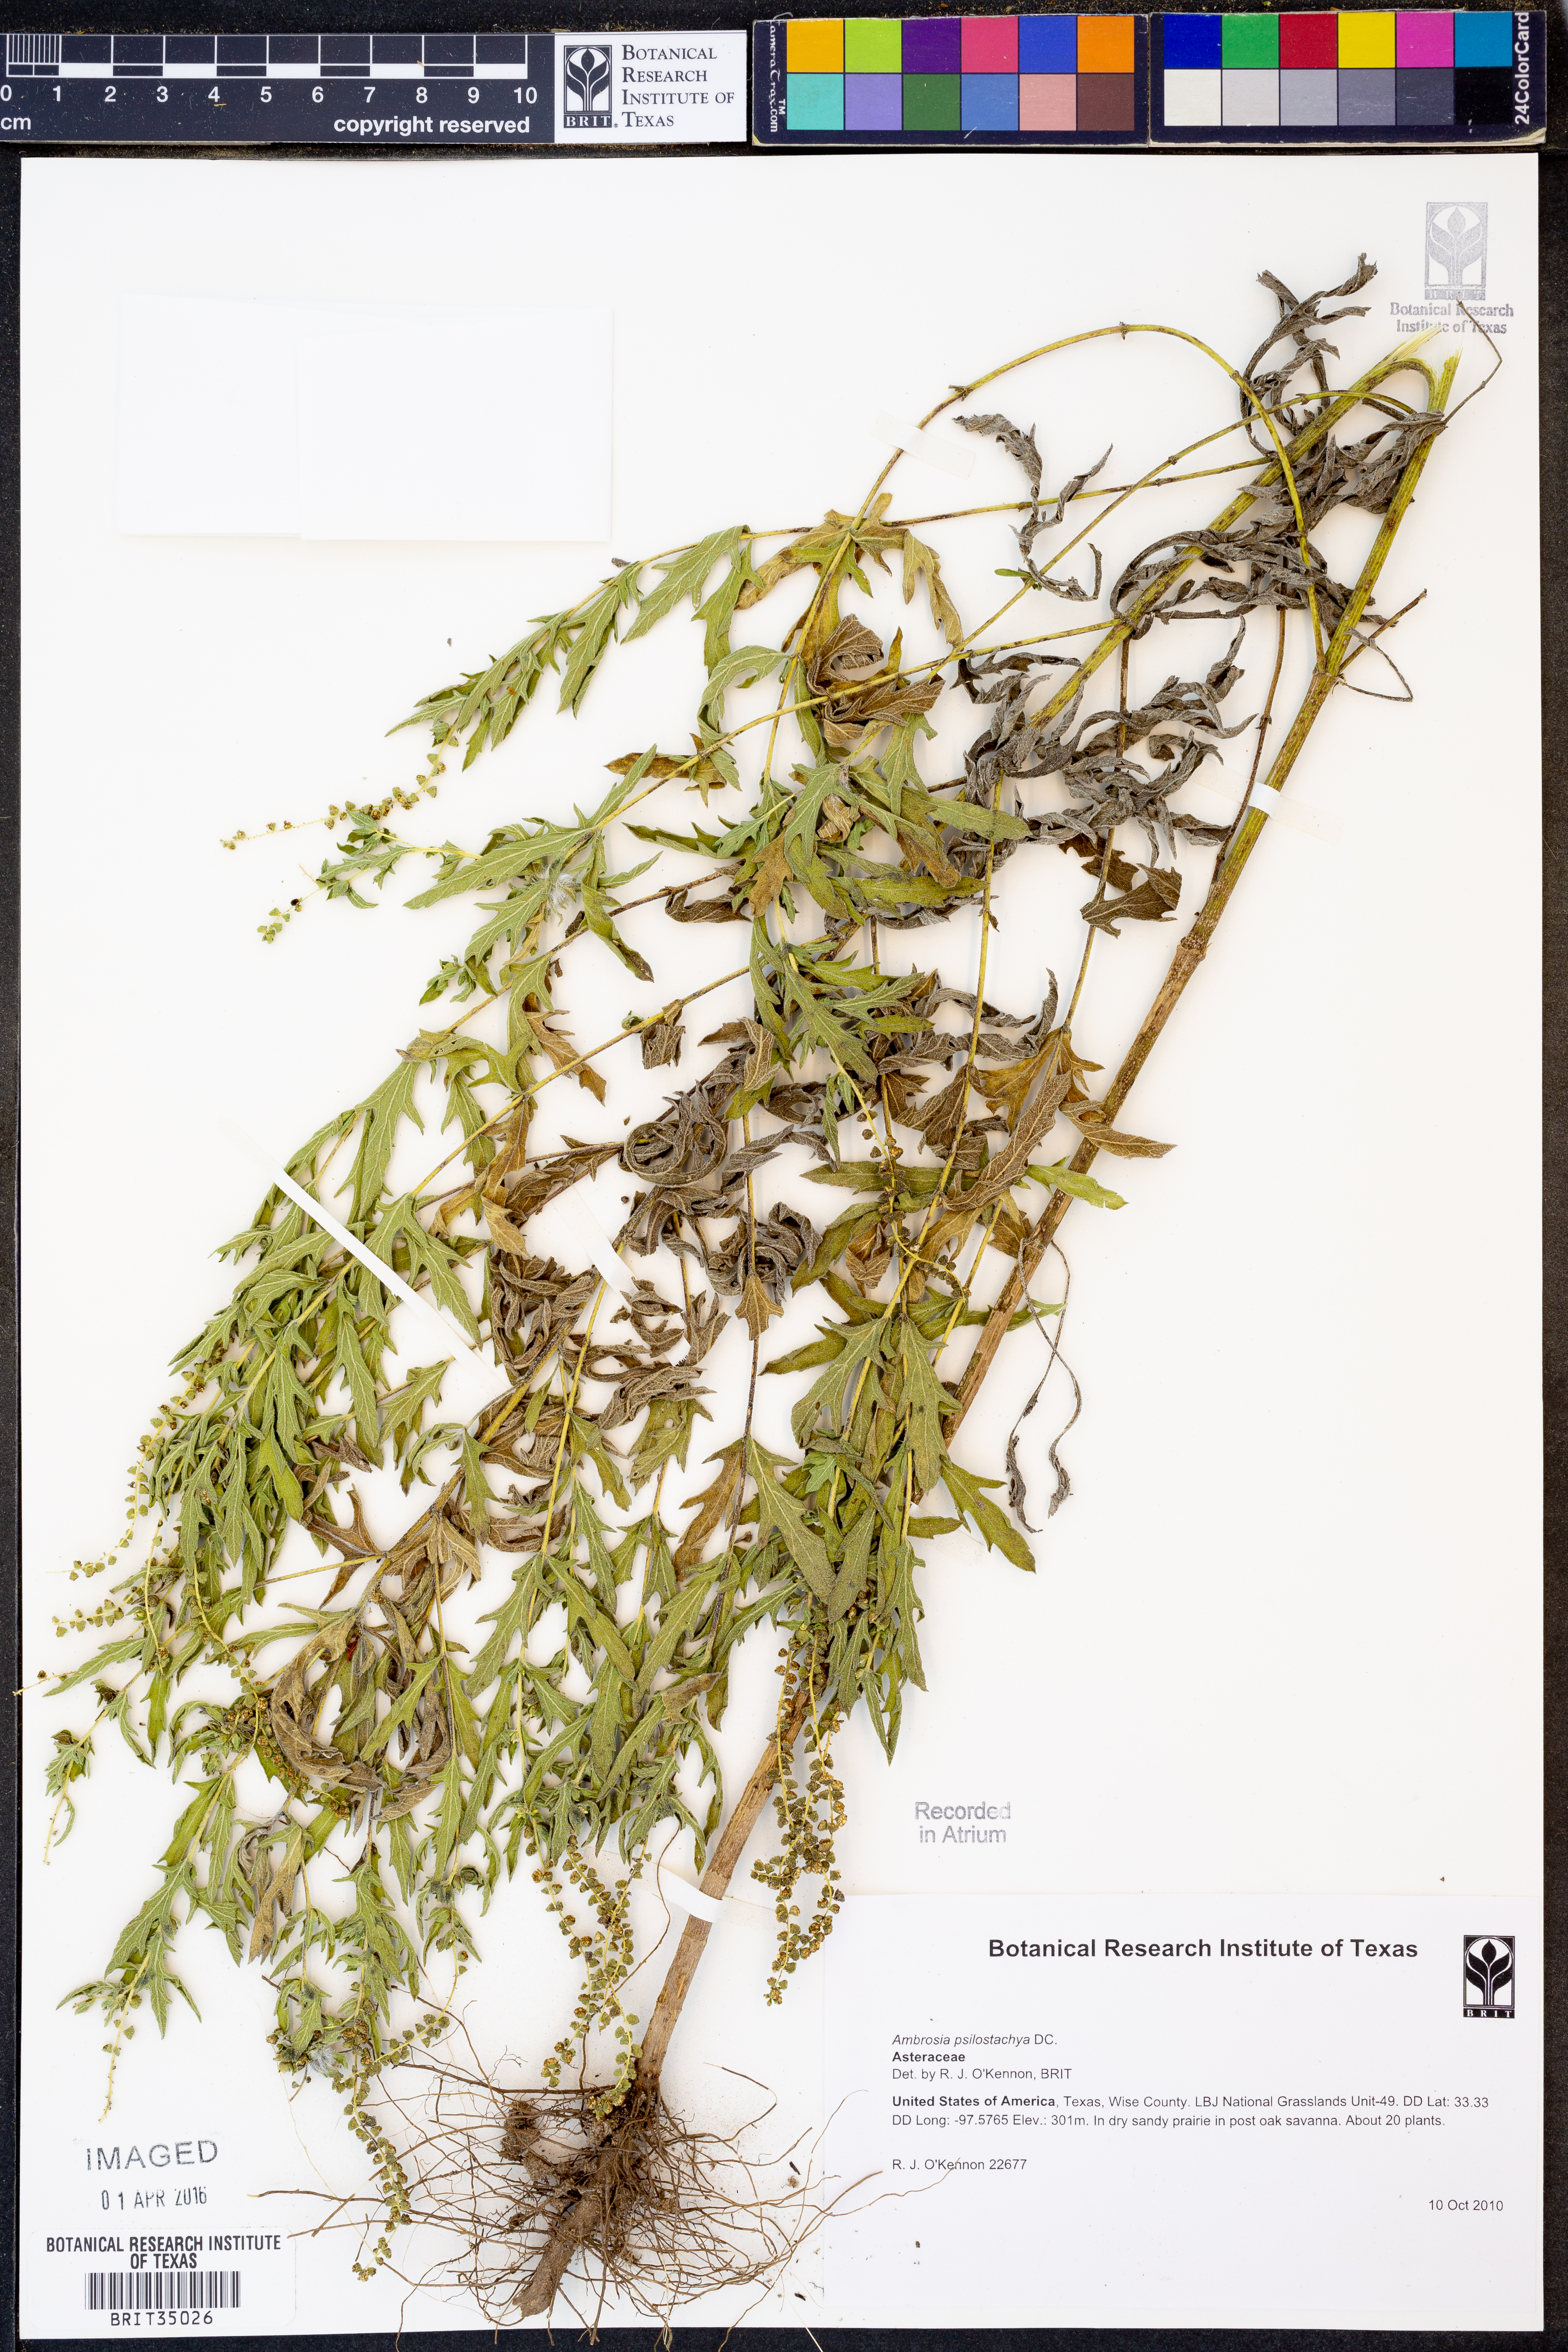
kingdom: Plantae
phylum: Tracheophyta
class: Magnoliopsida
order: Asterales
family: Asteraceae
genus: Ambrosia
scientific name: Ambrosia psilostachya
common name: Perennial ragweed
